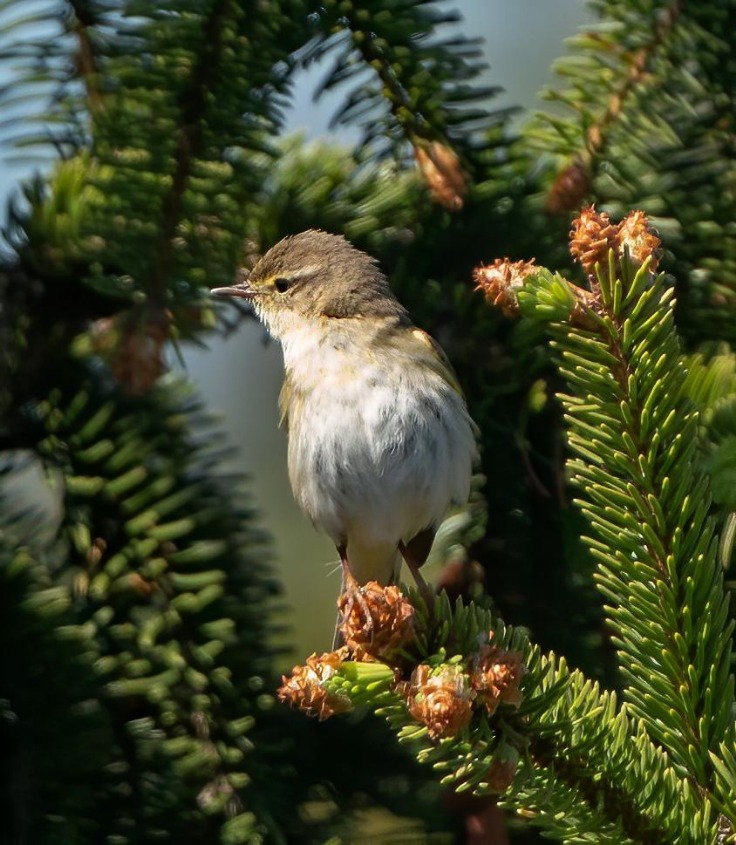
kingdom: Animalia
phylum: Chordata
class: Aves
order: Passeriformes
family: Phylloscopidae
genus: Phylloscopus
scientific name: Phylloscopus trochilus
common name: Løvsanger
